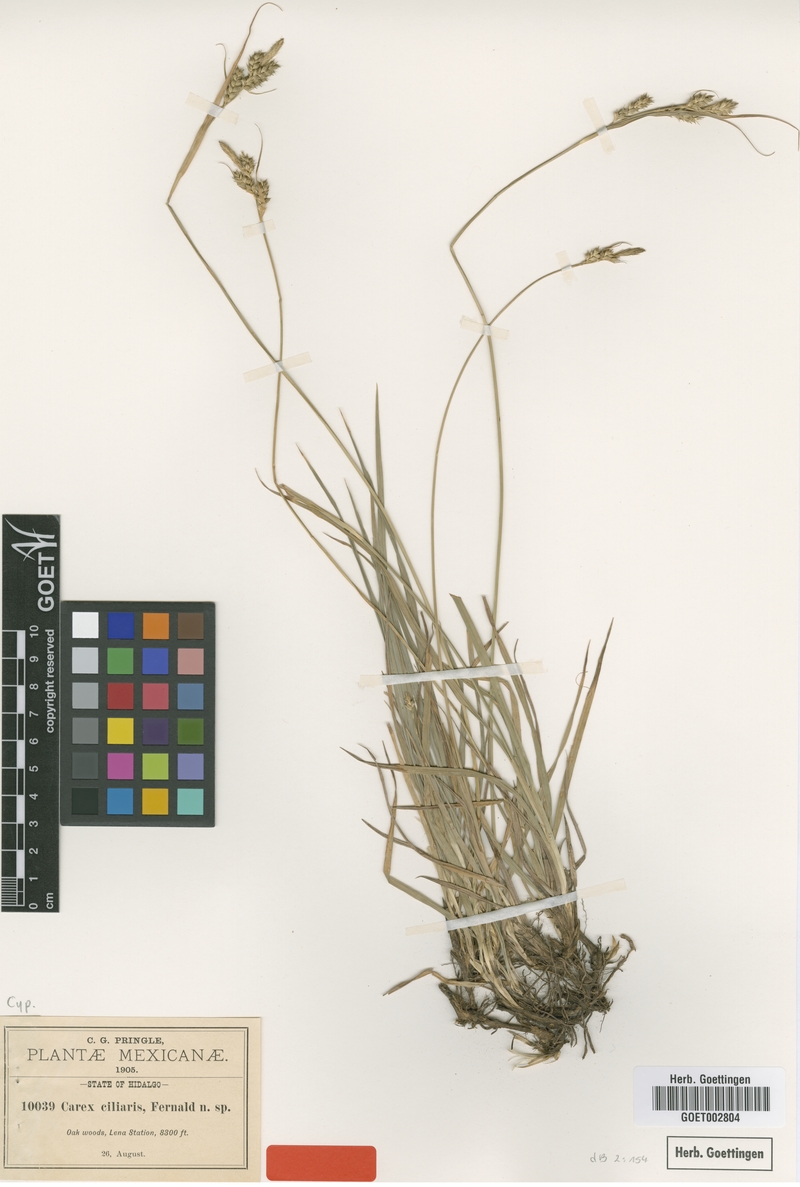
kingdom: Plantae
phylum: Tracheophyta
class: Liliopsida
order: Poales
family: Cyperaceae
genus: Carex
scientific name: Carex longicaulis
